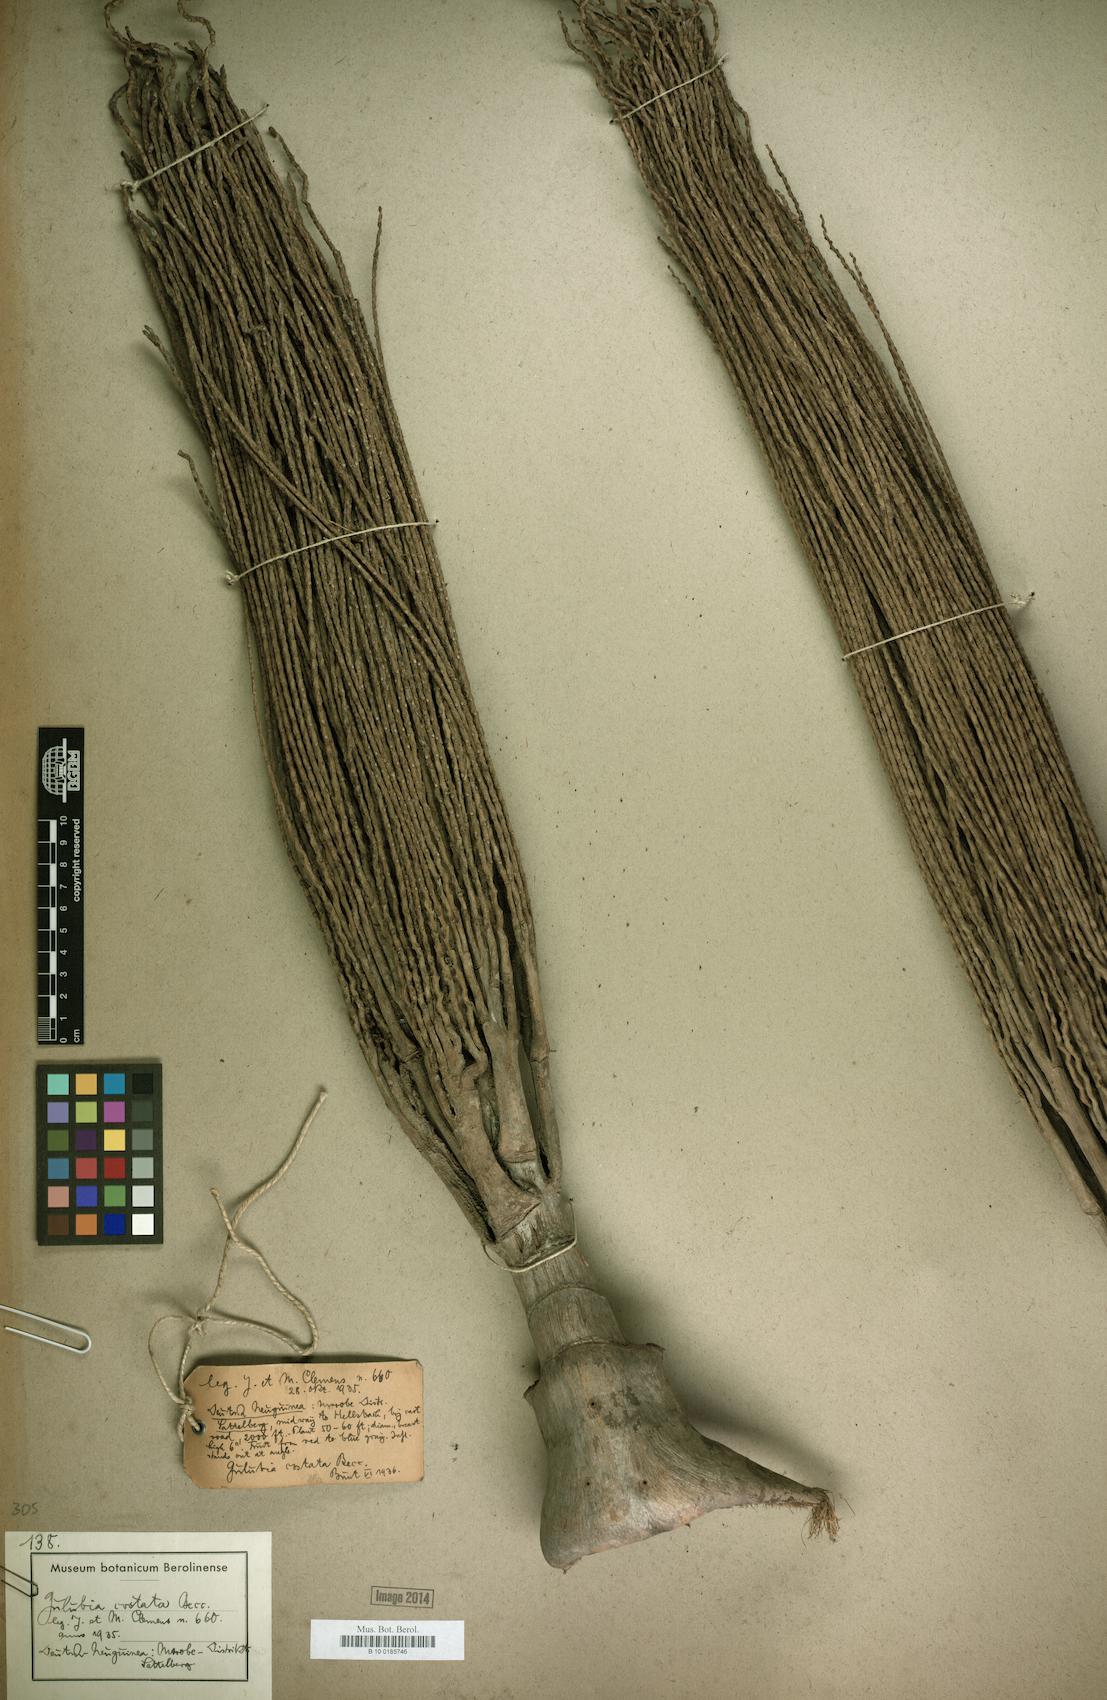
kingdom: Plantae
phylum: Tracheophyta
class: Liliopsida
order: Arecales
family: Arecaceae
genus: Hydriastele
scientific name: Hydriastele costata
